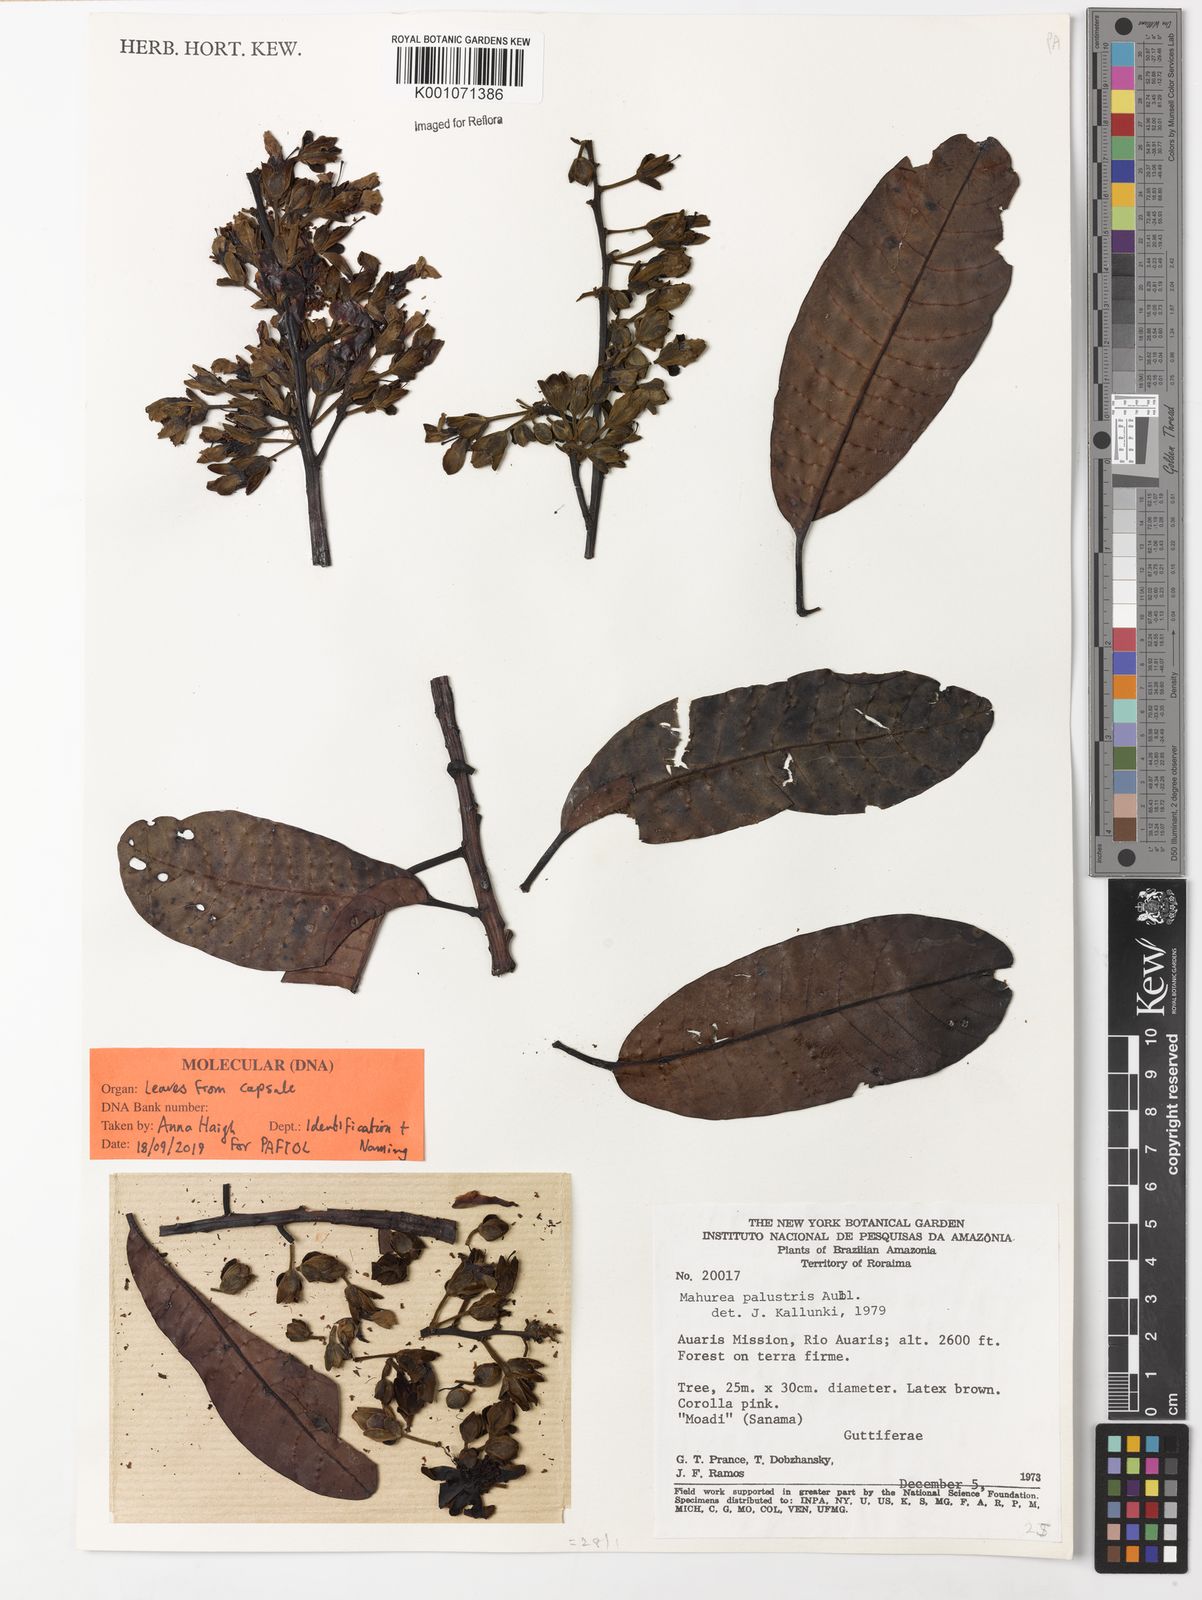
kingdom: Plantae
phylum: Tracheophyta
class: Magnoliopsida
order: Malpighiales
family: Calophyllaceae
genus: Mahurea
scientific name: Mahurea
